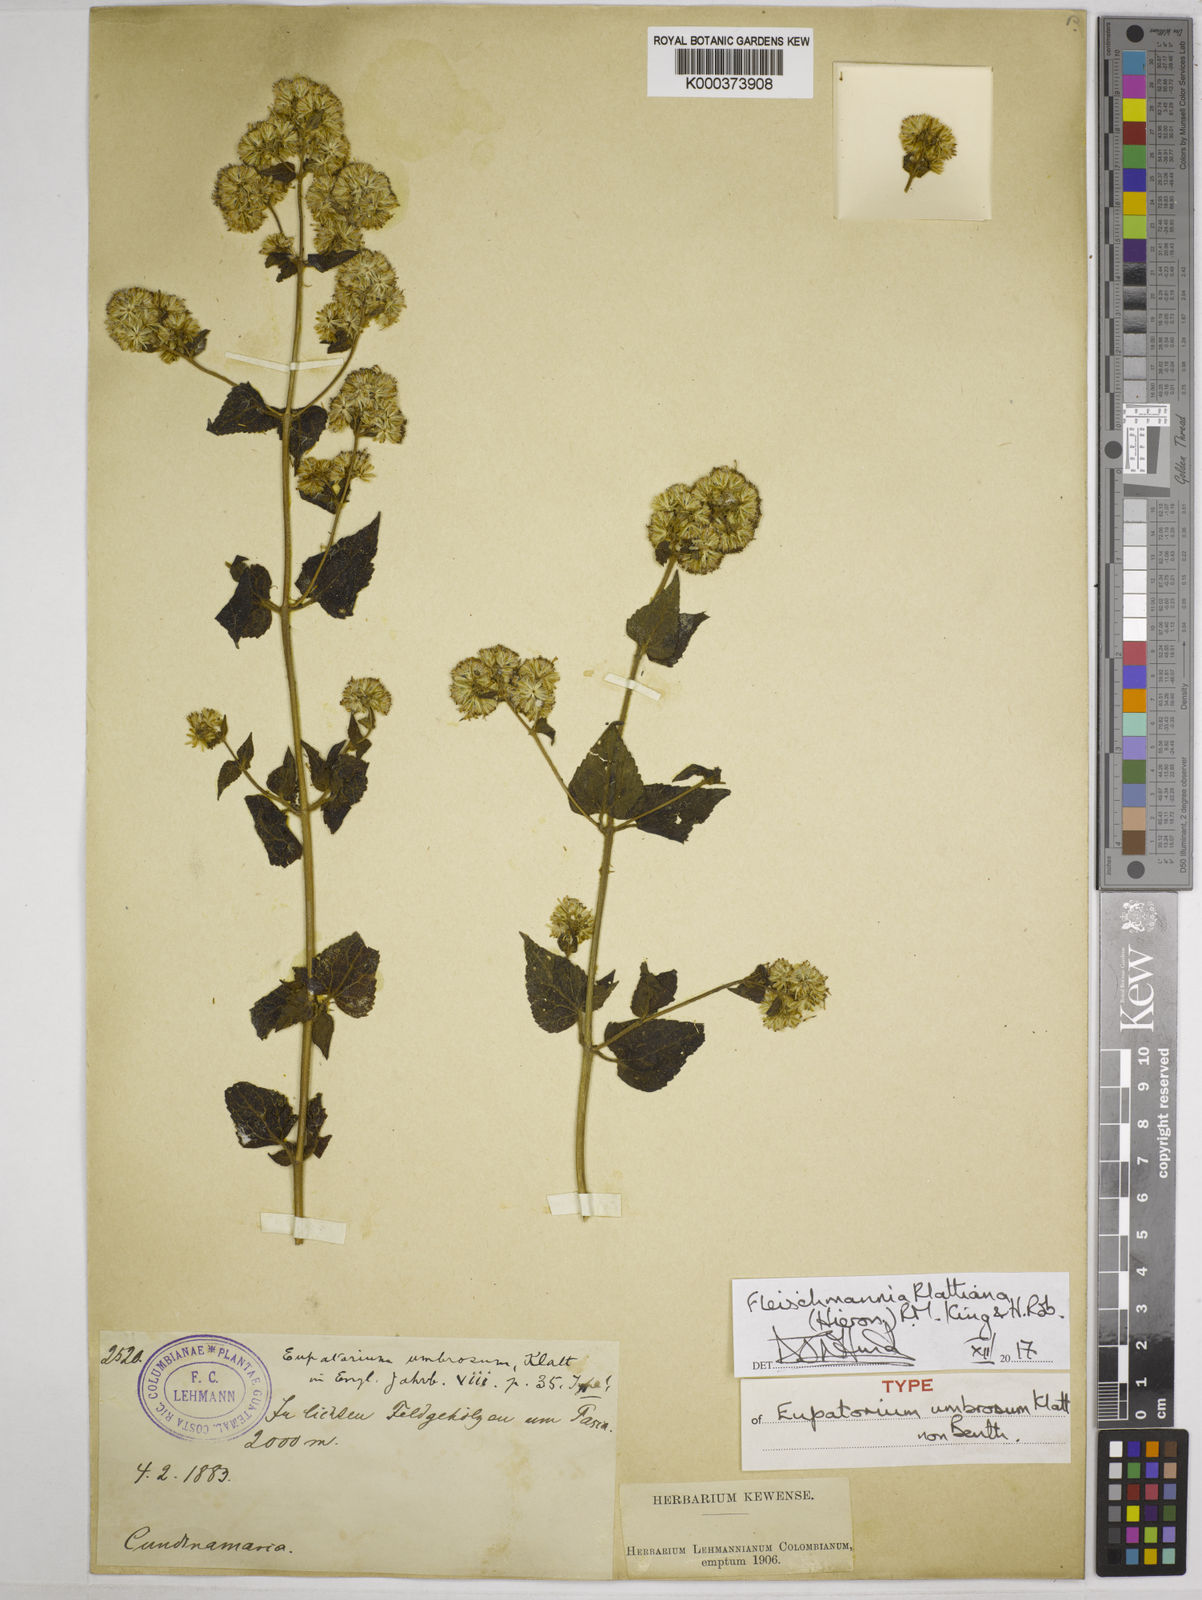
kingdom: Plantae
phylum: Tracheophyta
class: Magnoliopsida
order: Asterales
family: Asteraceae
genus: Fleischmannia
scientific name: Fleischmannia klattiana
